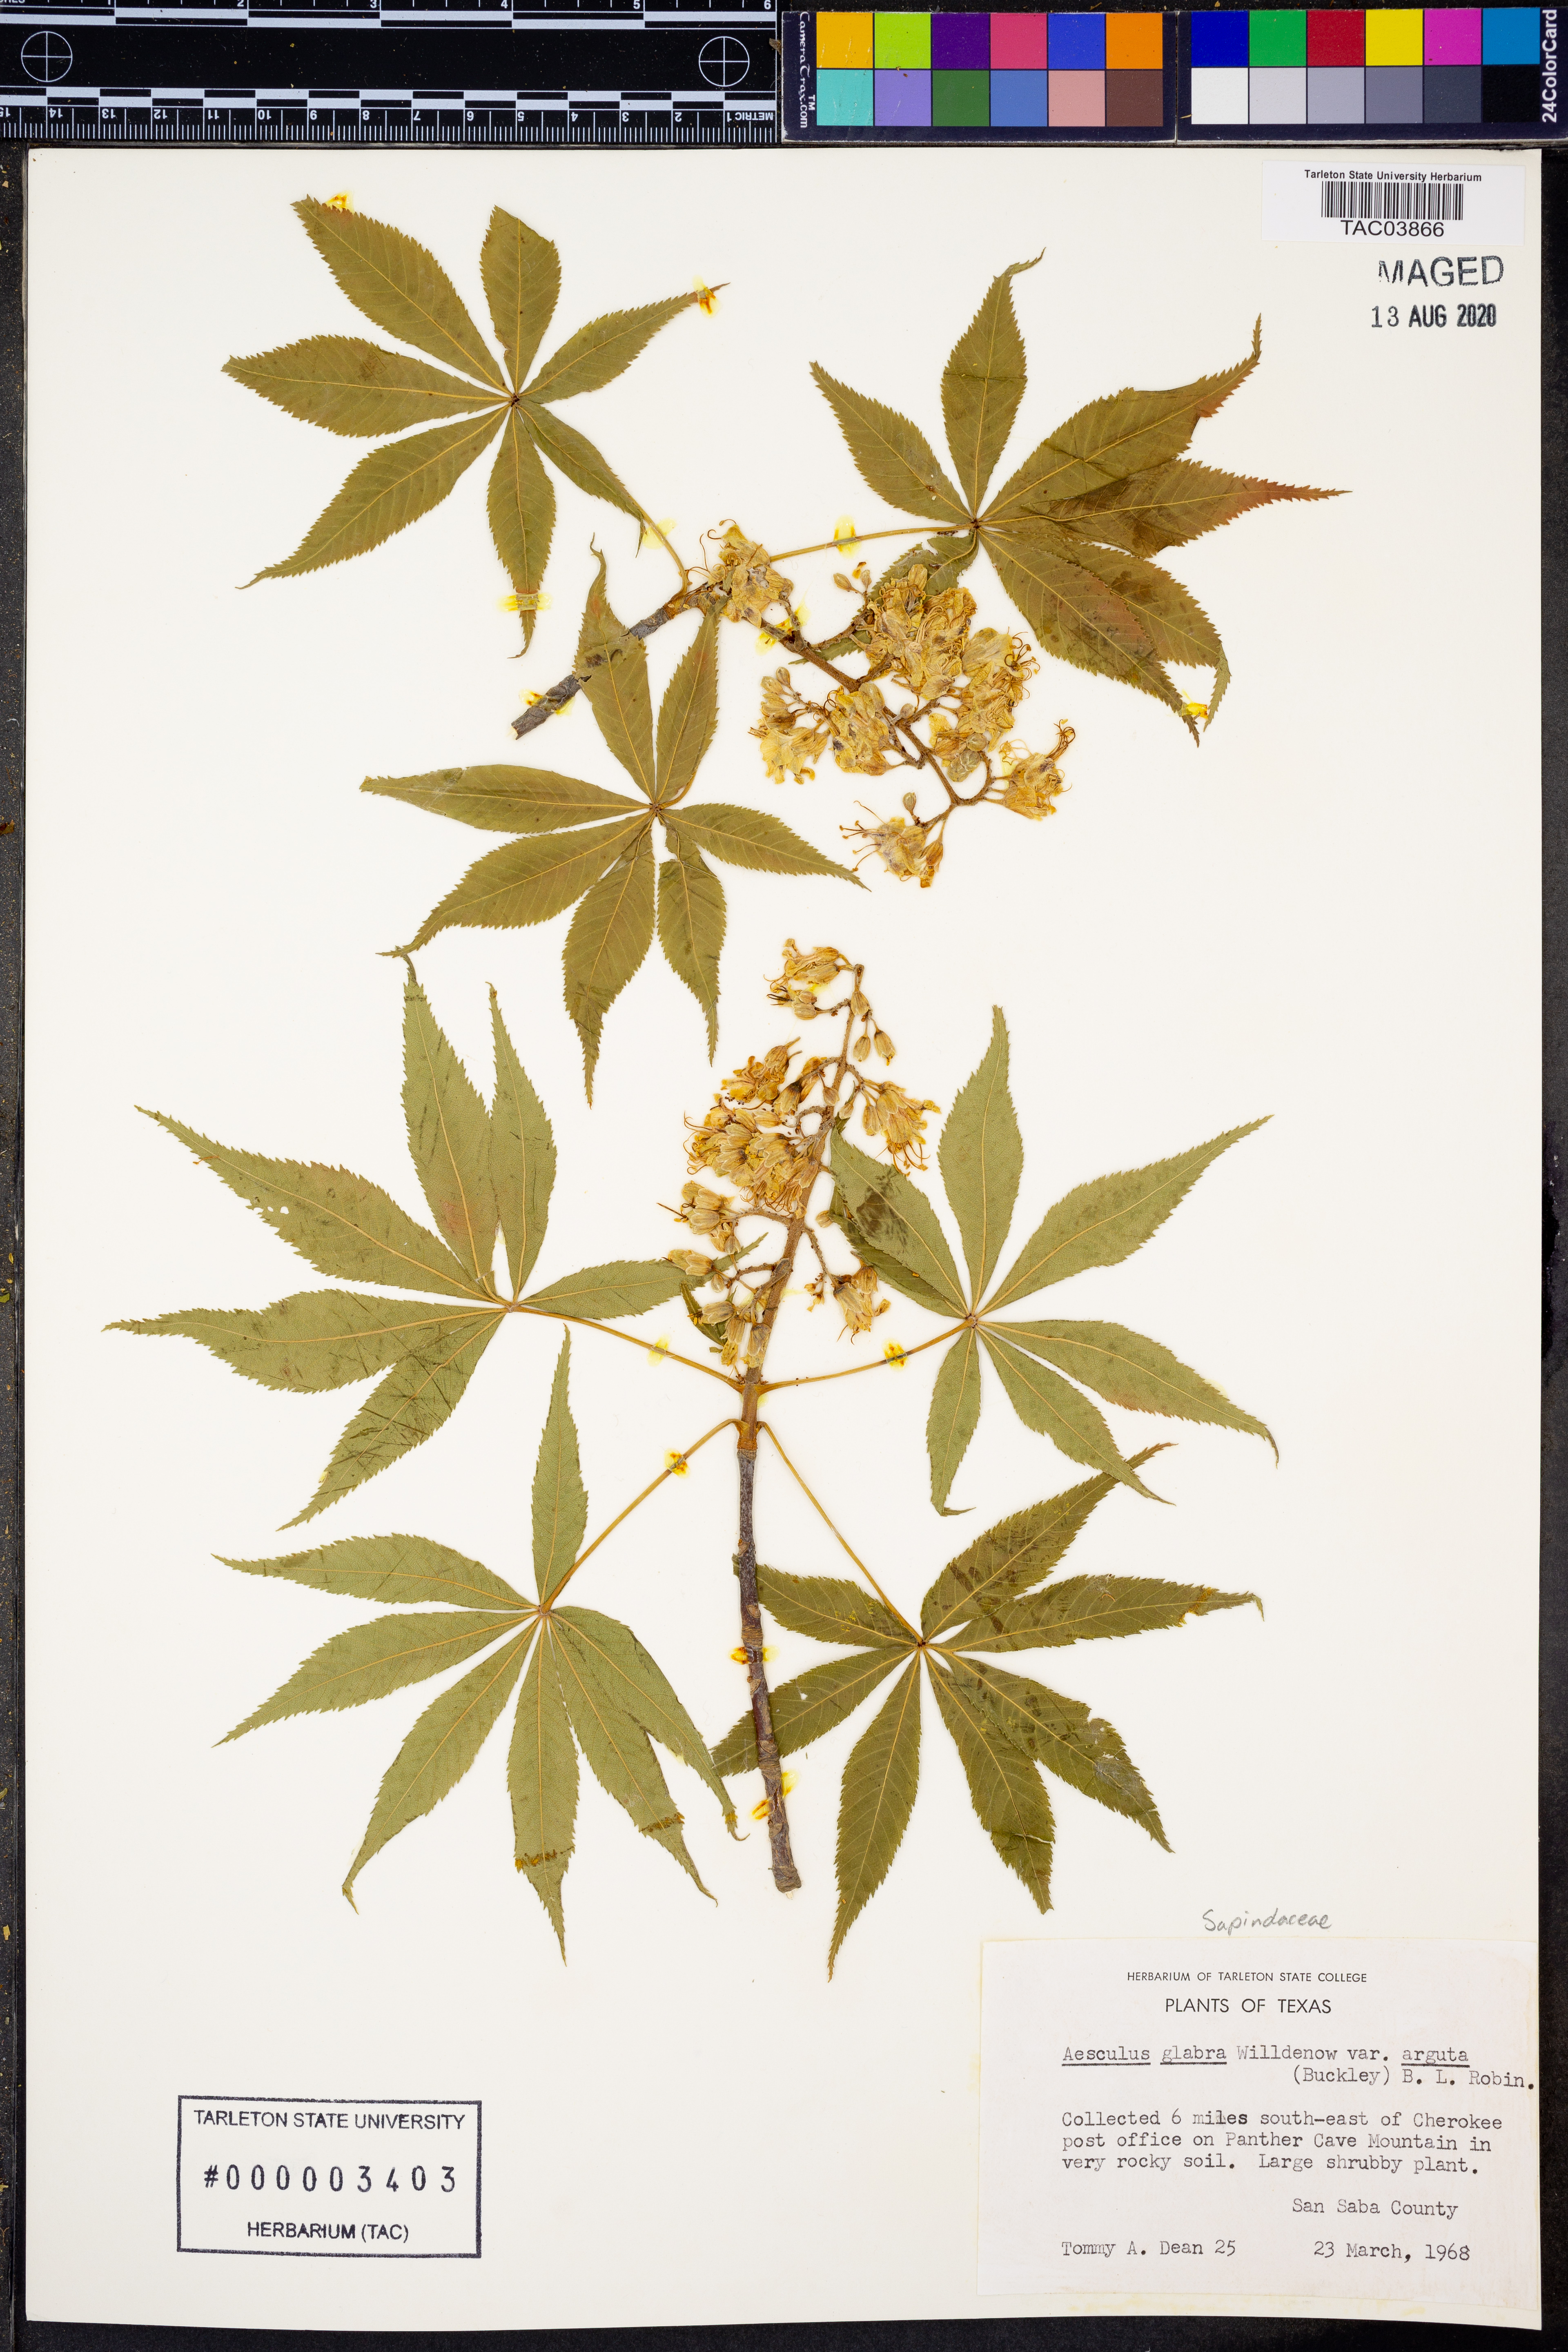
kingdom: Plantae
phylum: Tracheophyta
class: Magnoliopsida
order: Sapindales
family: Sapindaceae
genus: Aesculus
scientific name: Aesculus glabra
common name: Ohio buckeye
